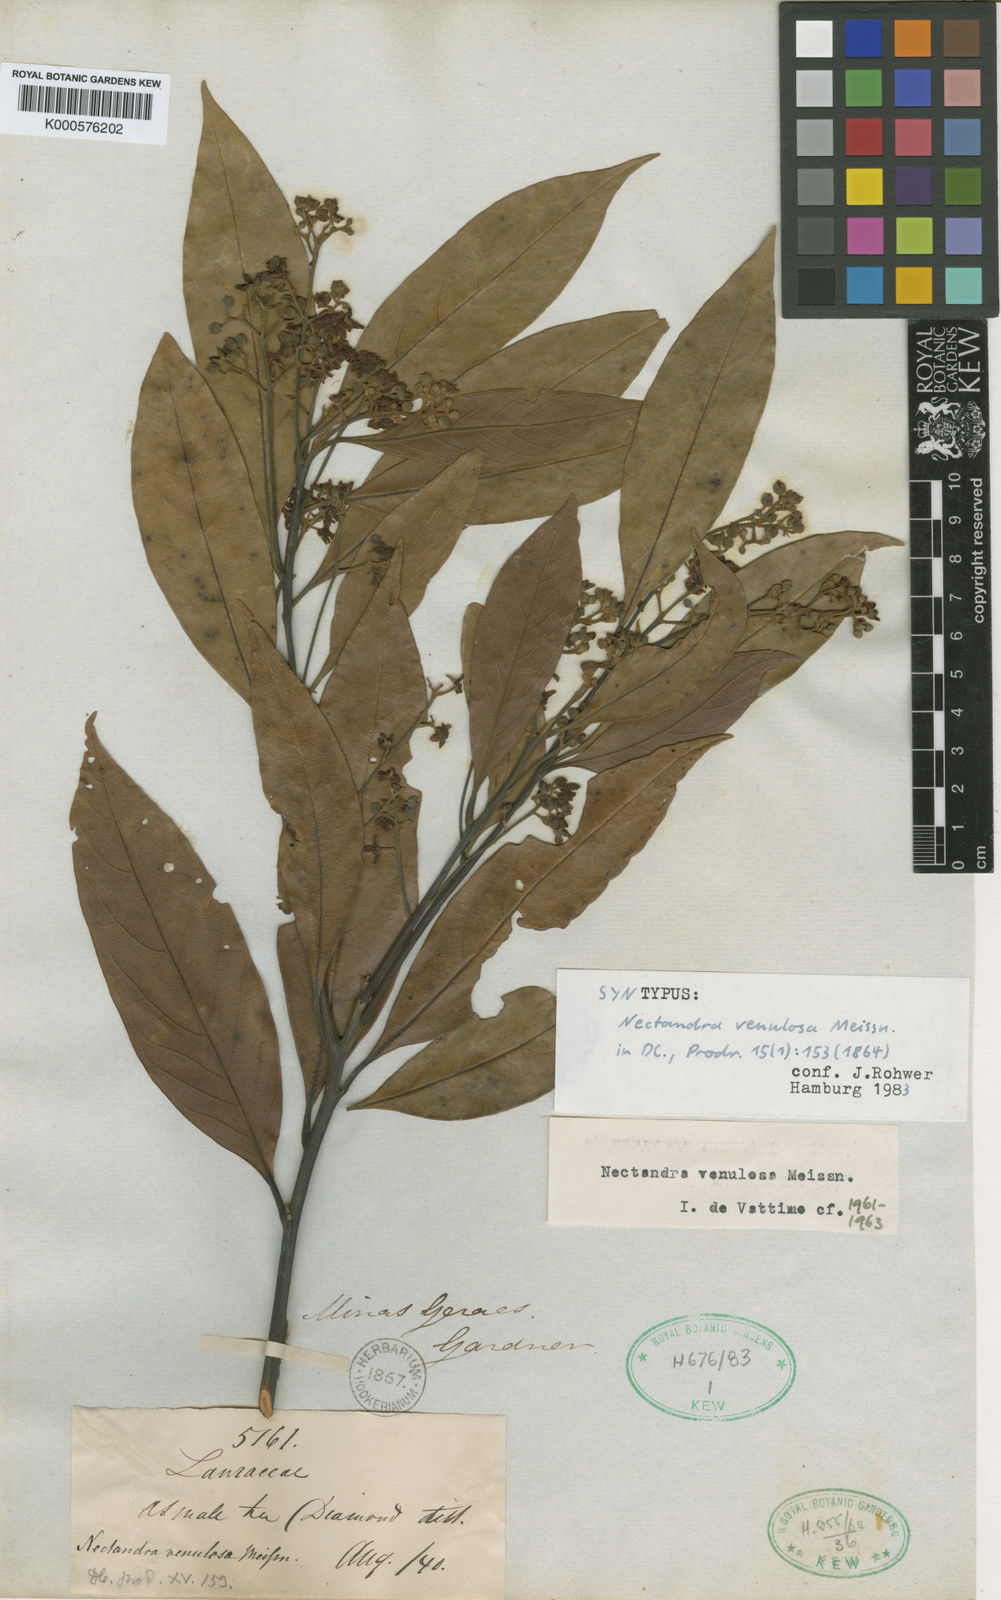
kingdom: Plantae
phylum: Tracheophyta
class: Magnoliopsida
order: Laurales
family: Lauraceae
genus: Nectandra
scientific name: Nectandra venulosa
